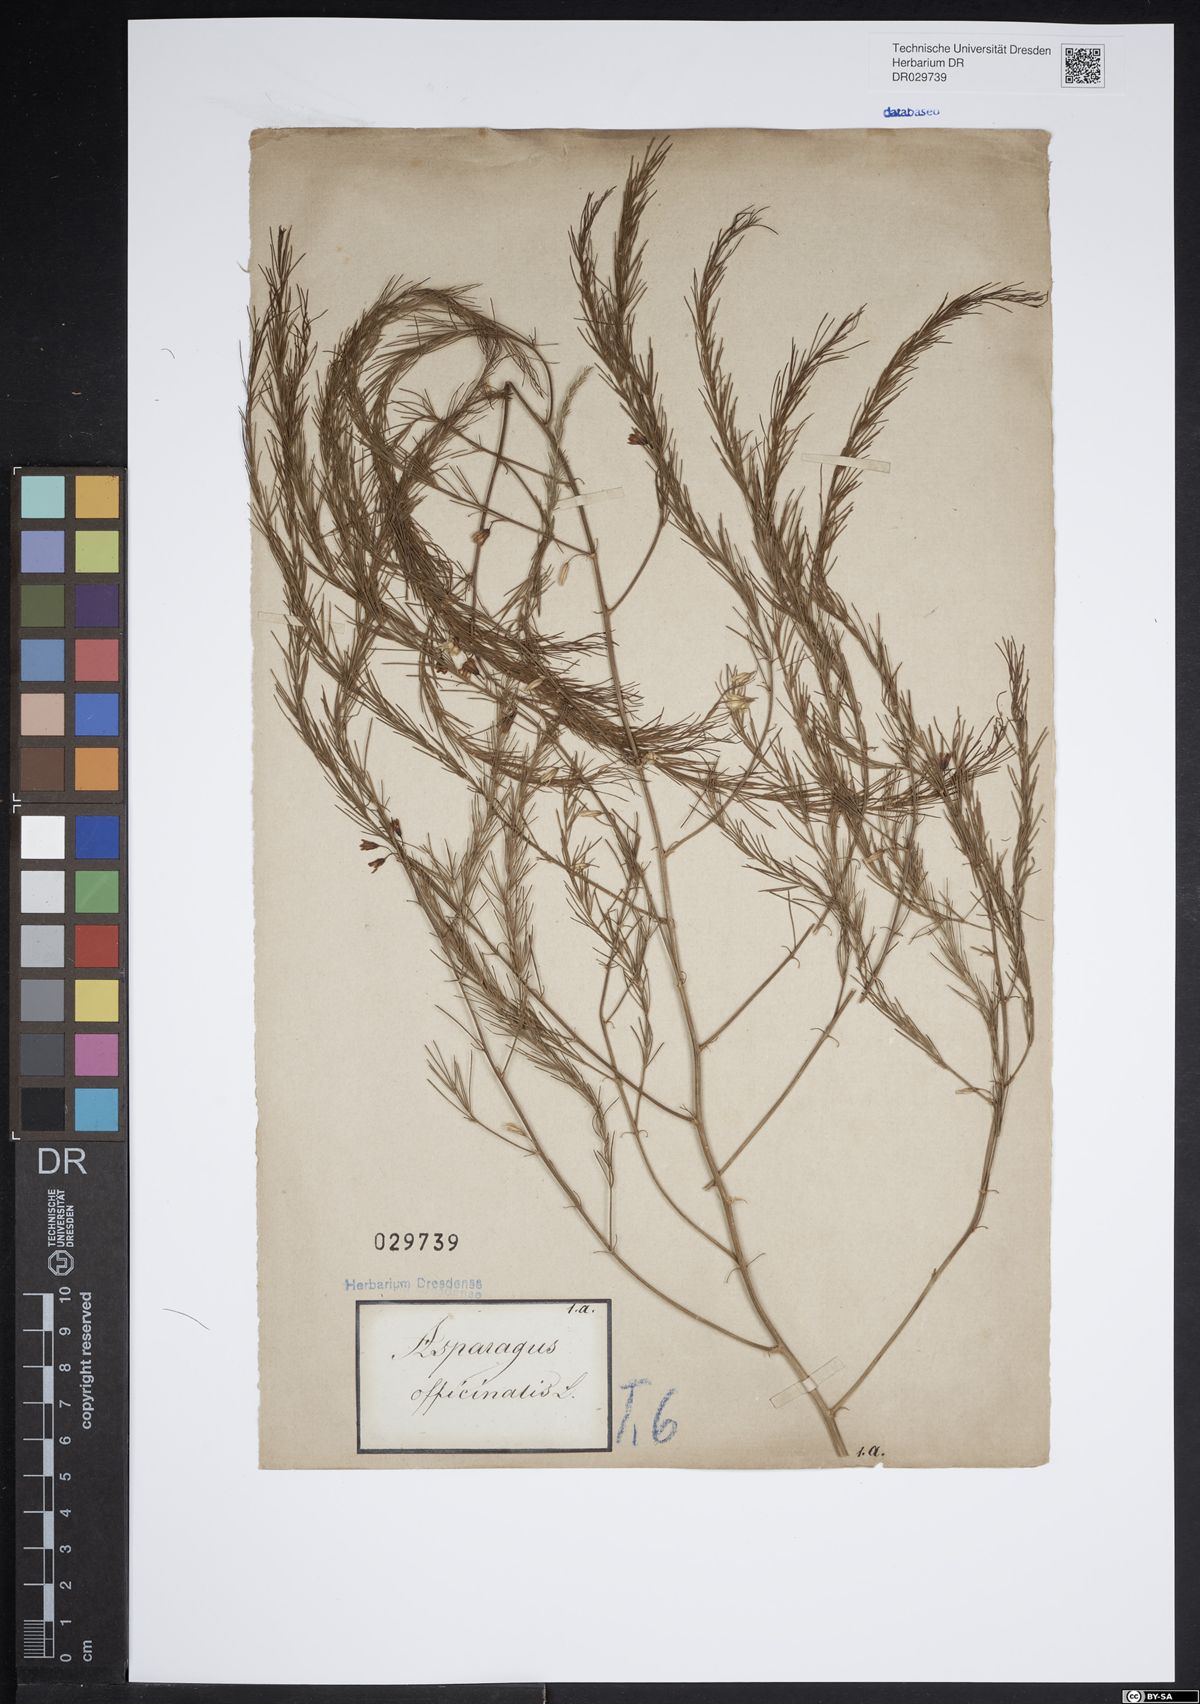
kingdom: Plantae
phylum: Tracheophyta
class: Liliopsida
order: Asparagales
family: Asparagaceae
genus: Asparagus
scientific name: Asparagus officinalis
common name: Garden asparagus
